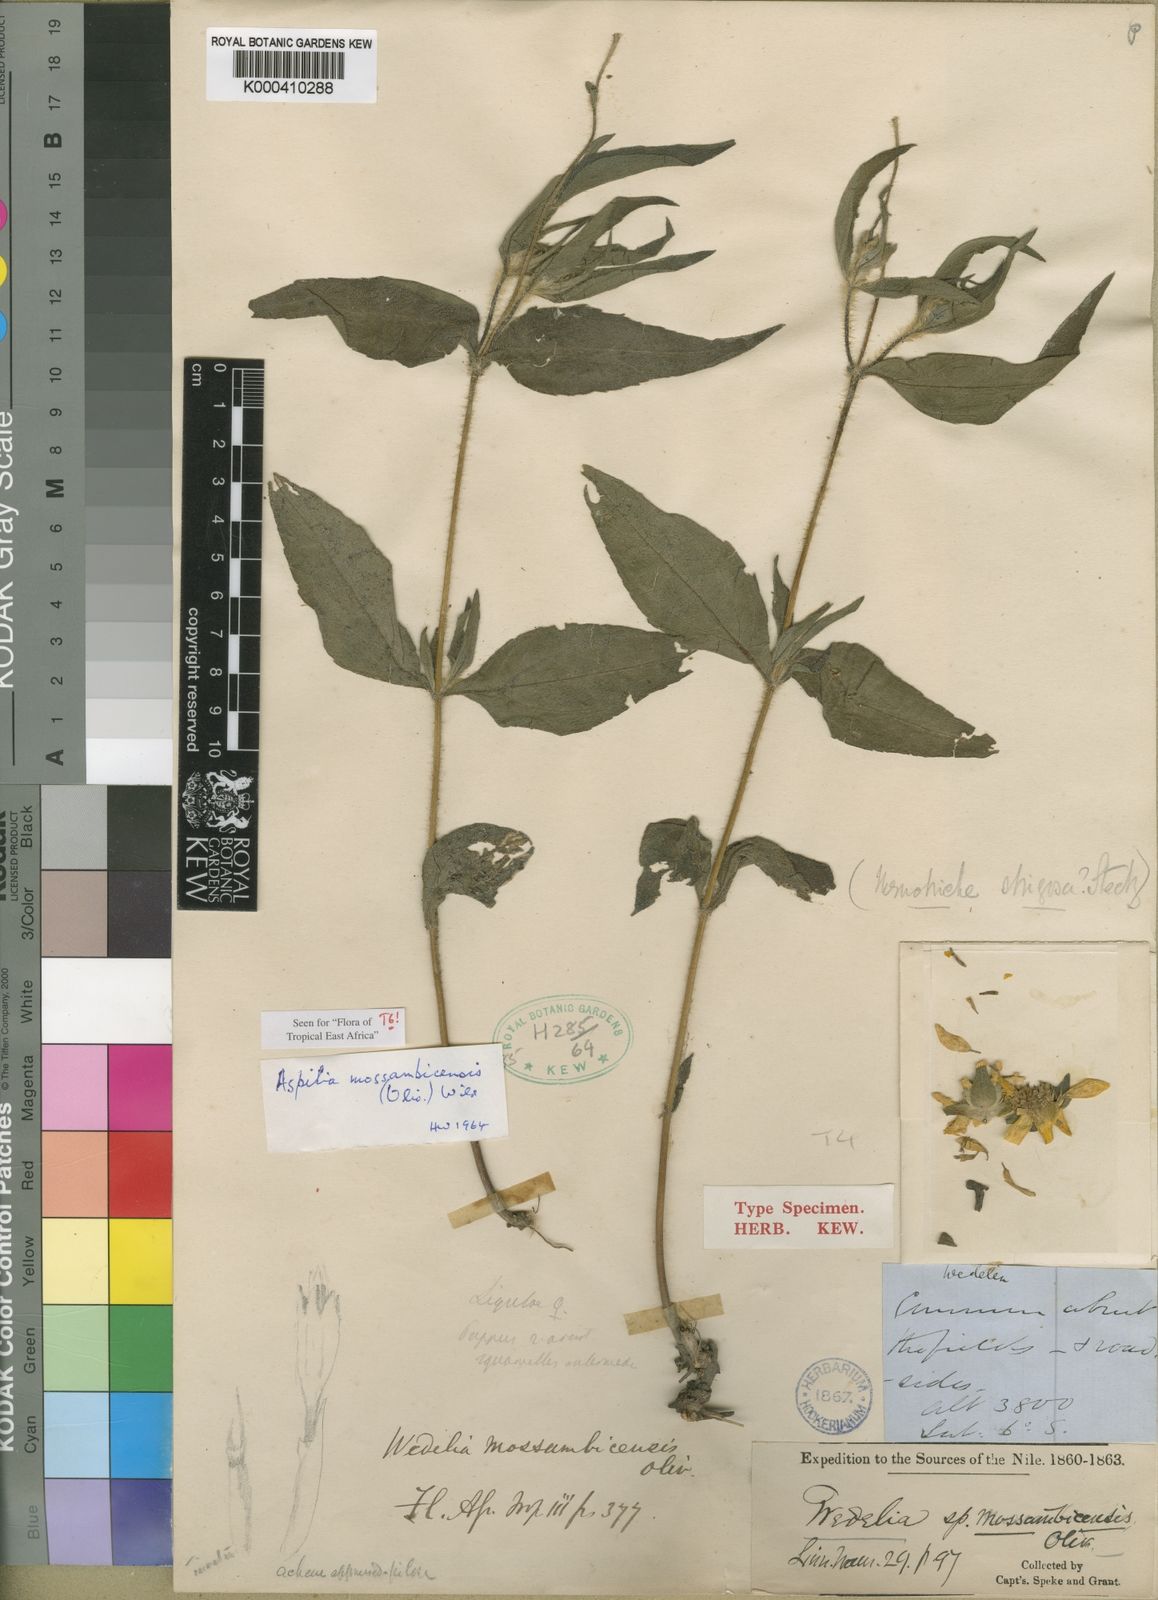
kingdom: Plantae
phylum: Tracheophyta
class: Magnoliopsida
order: Asterales
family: Asteraceae
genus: Aspilia
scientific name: Aspilia mossambicensis
